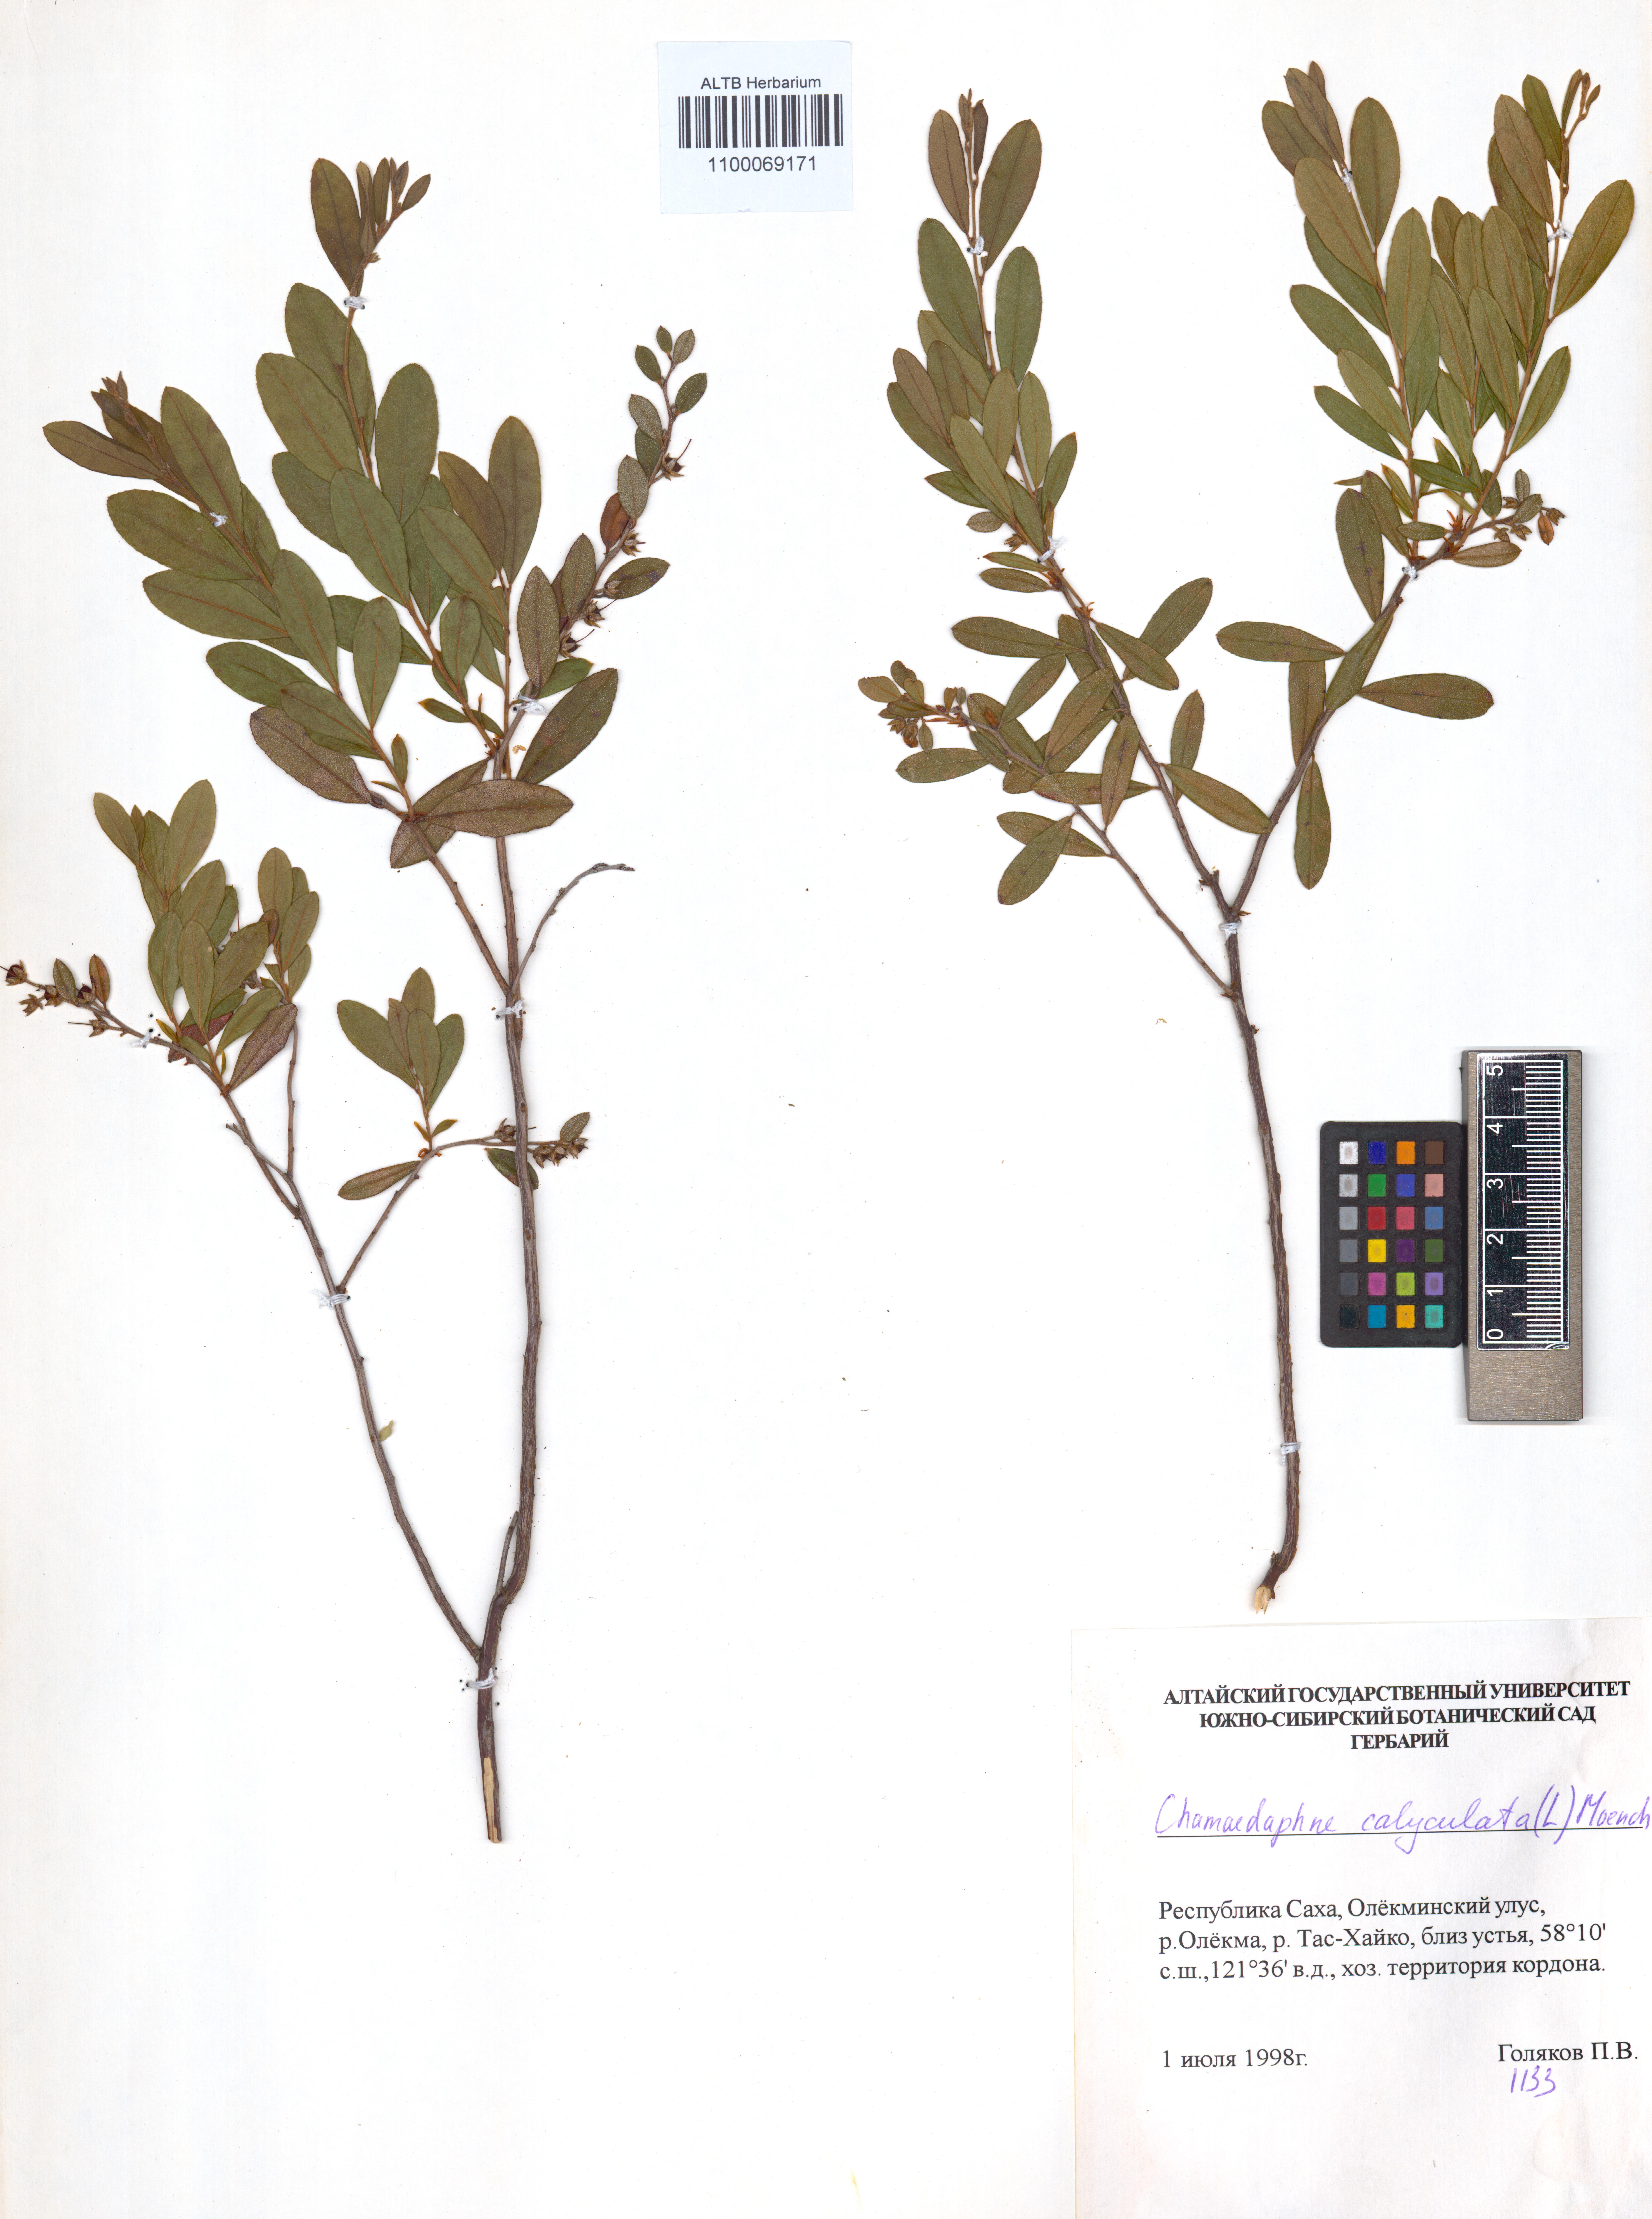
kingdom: Plantae
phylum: Tracheophyta
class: Magnoliopsida
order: Ericales
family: Ericaceae
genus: Chamaedaphne
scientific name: Chamaedaphne calyculata
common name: Leatherleaf
